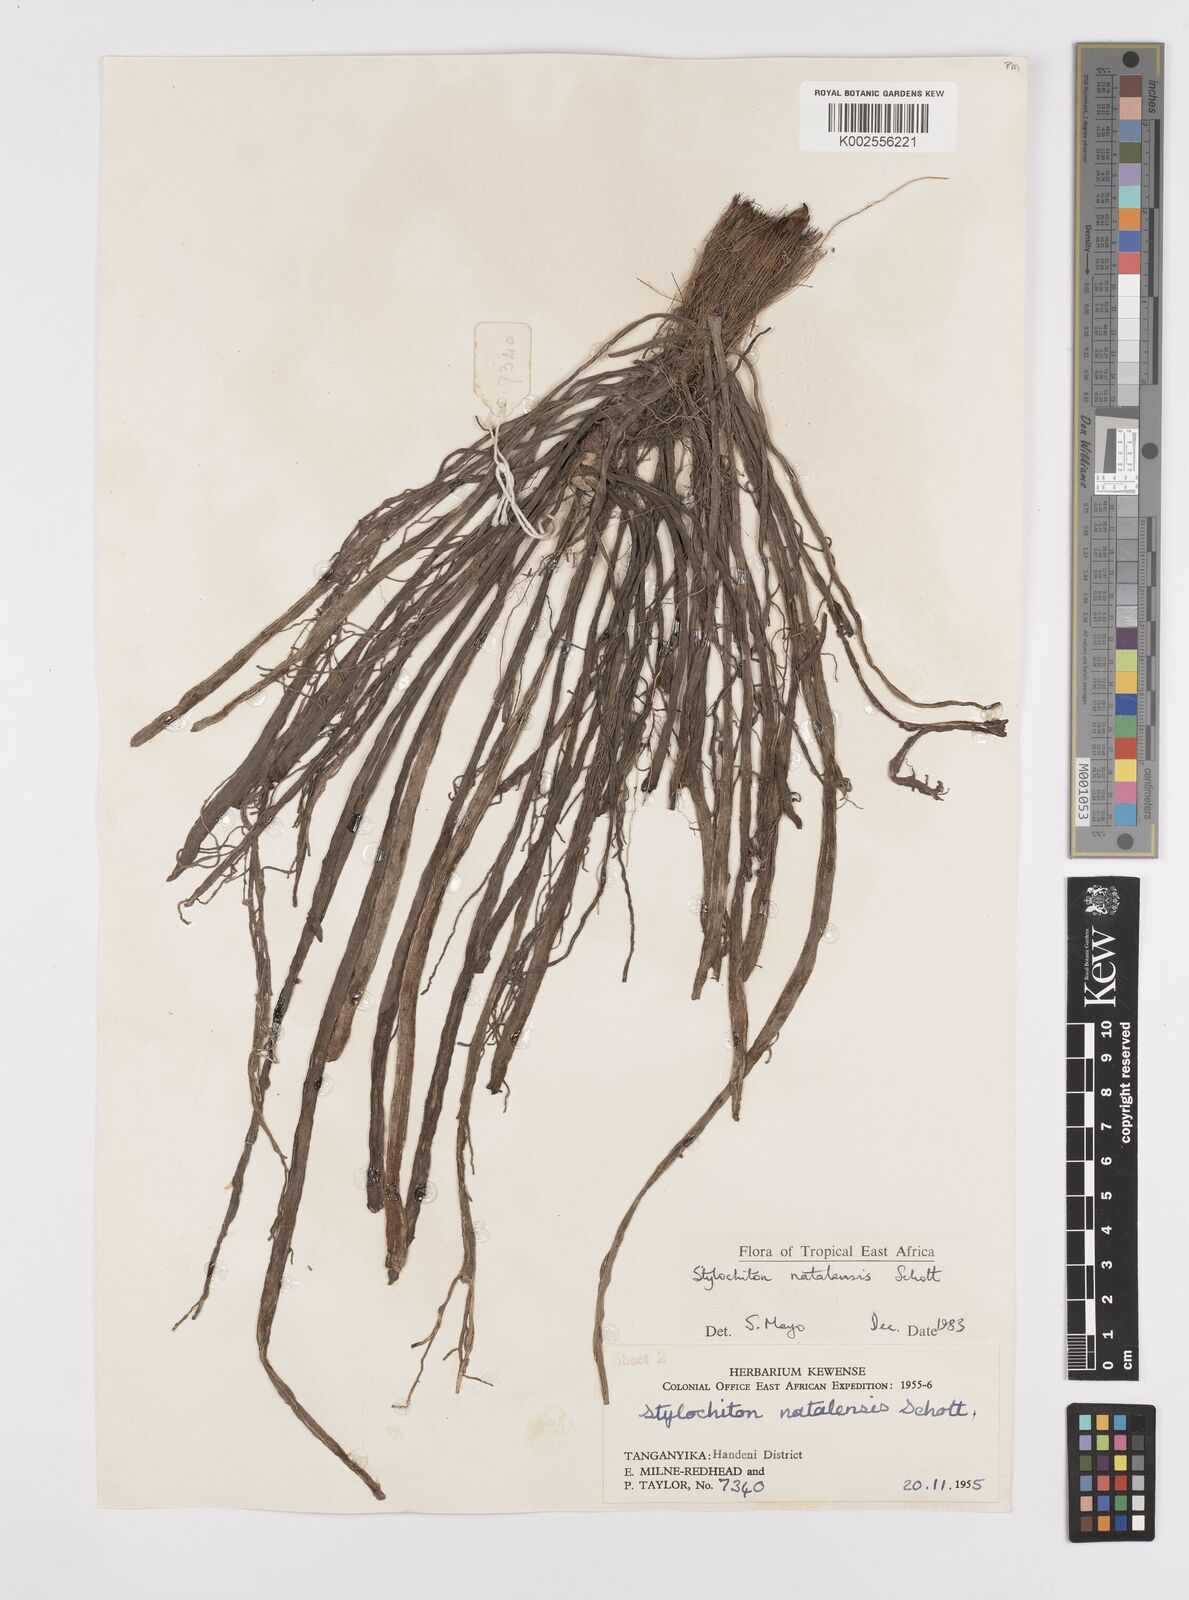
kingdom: Plantae
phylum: Tracheophyta
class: Liliopsida
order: Alismatales
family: Araceae
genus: Stylochaeton
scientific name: Stylochaeton natalense
